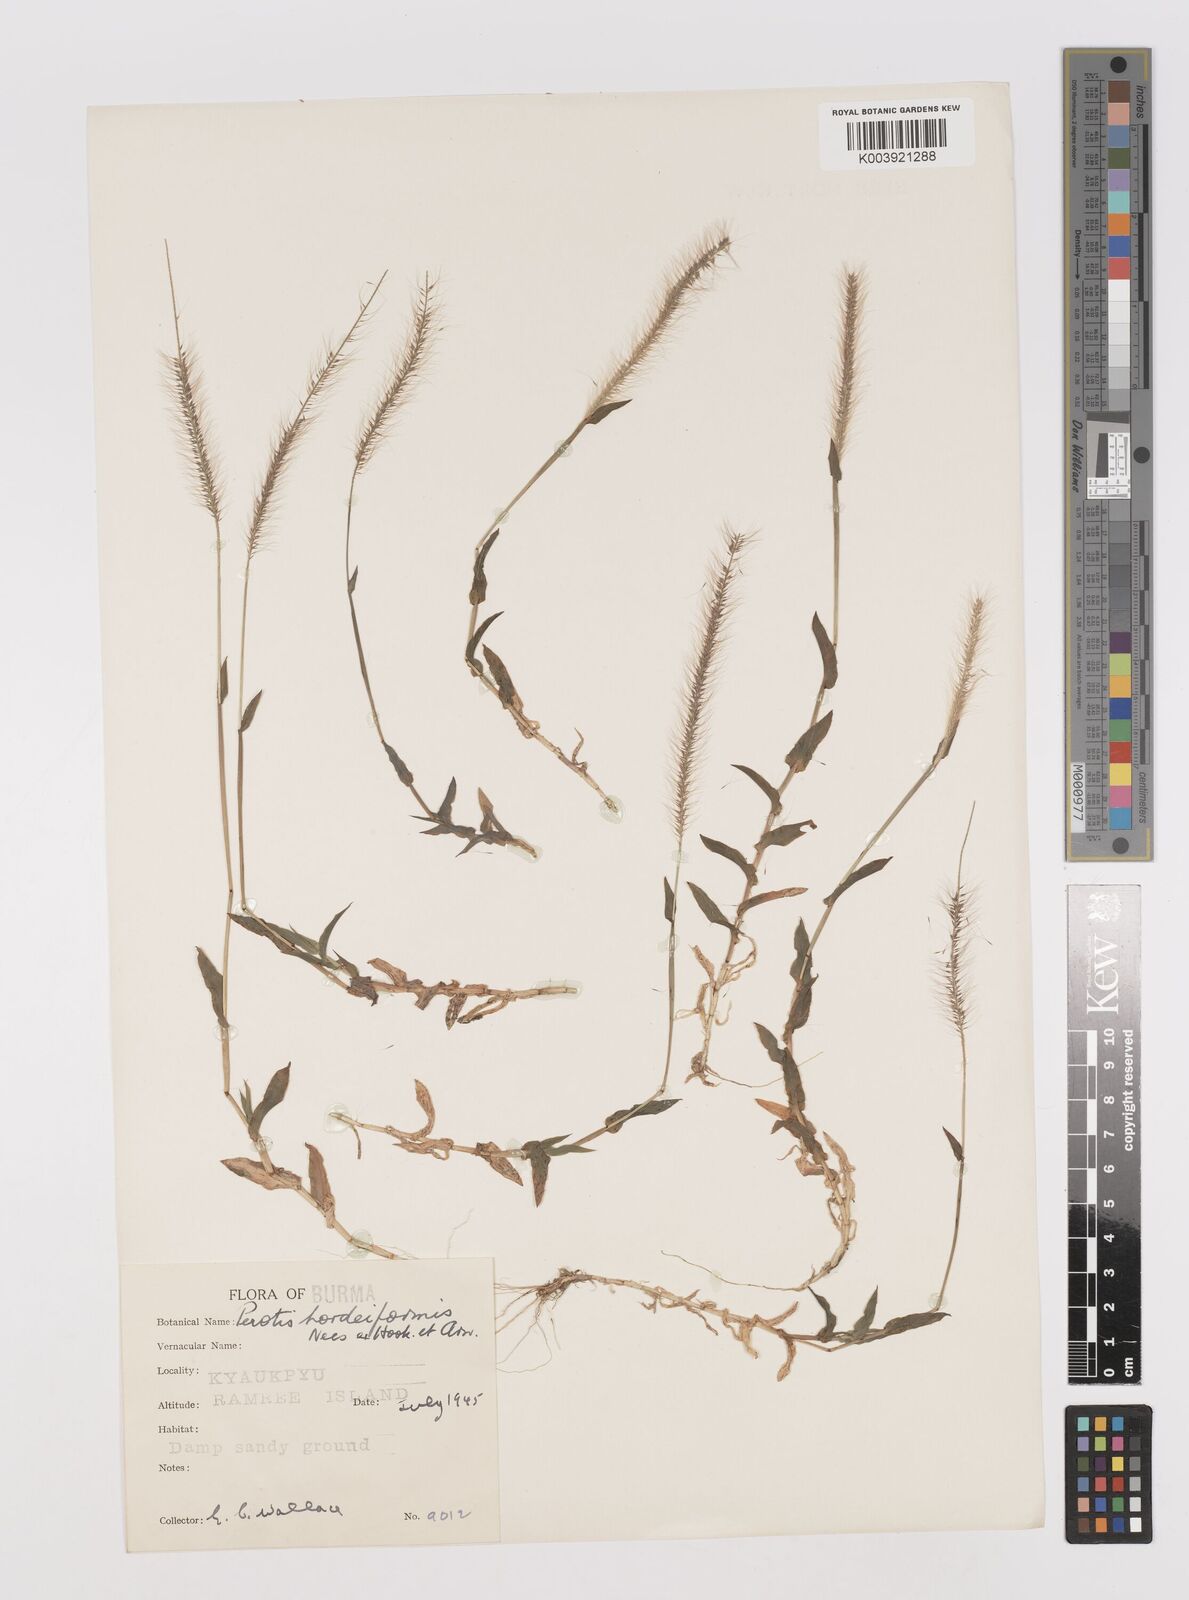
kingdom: Plantae
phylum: Tracheophyta
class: Liliopsida
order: Poales
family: Poaceae
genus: Perotis
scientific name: Perotis hordeiformis
